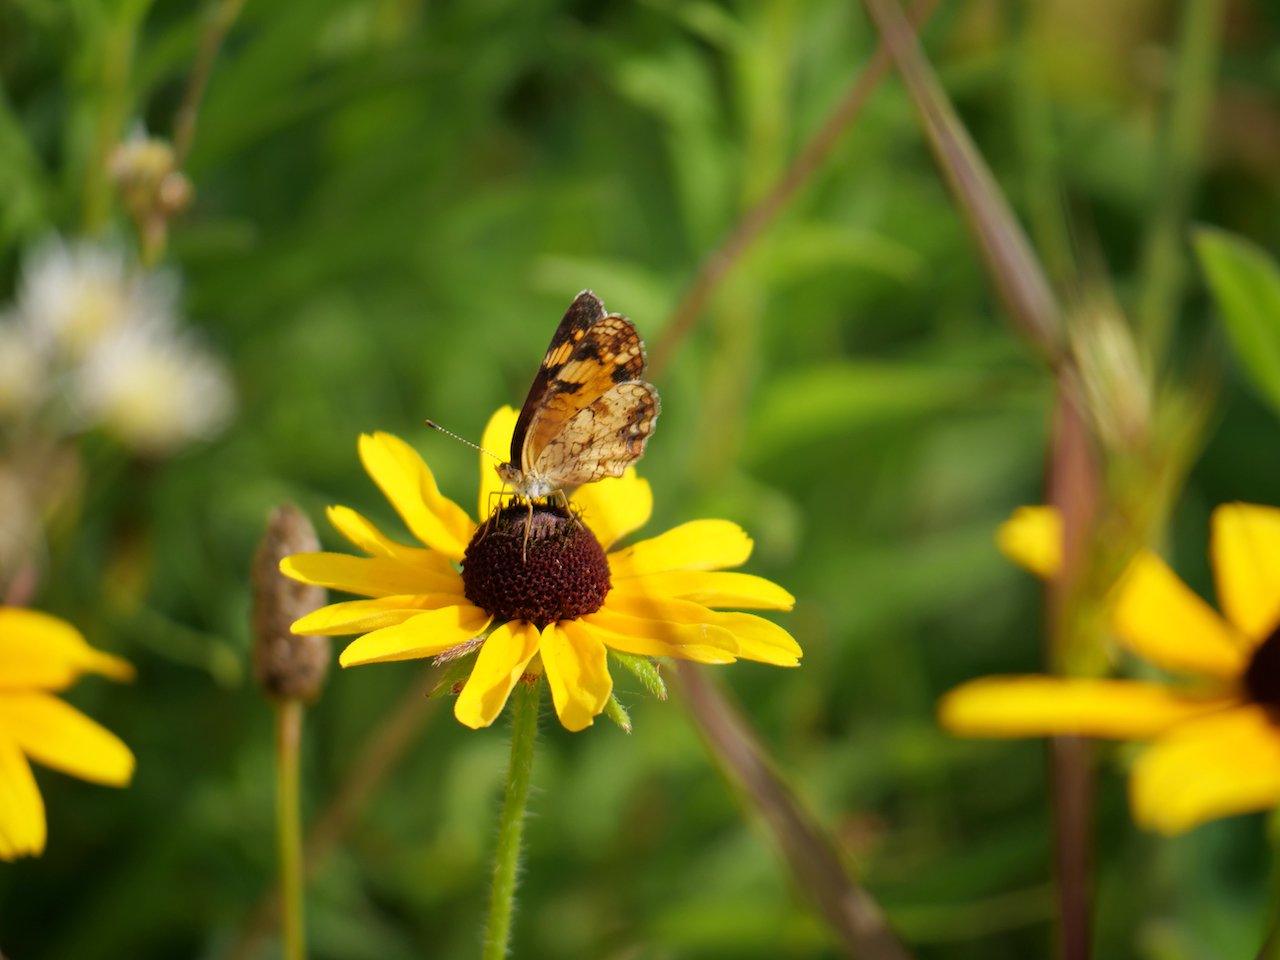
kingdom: Animalia
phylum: Arthropoda
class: Insecta
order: Lepidoptera
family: Nymphalidae
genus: Phyciodes
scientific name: Phyciodes tharos
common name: Pearl Crescent
